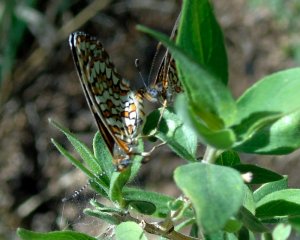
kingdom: Animalia
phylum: Arthropoda
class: Insecta
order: Lepidoptera
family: Nymphalidae
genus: Texola
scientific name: Texola elada
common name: Elada Checkerspot
